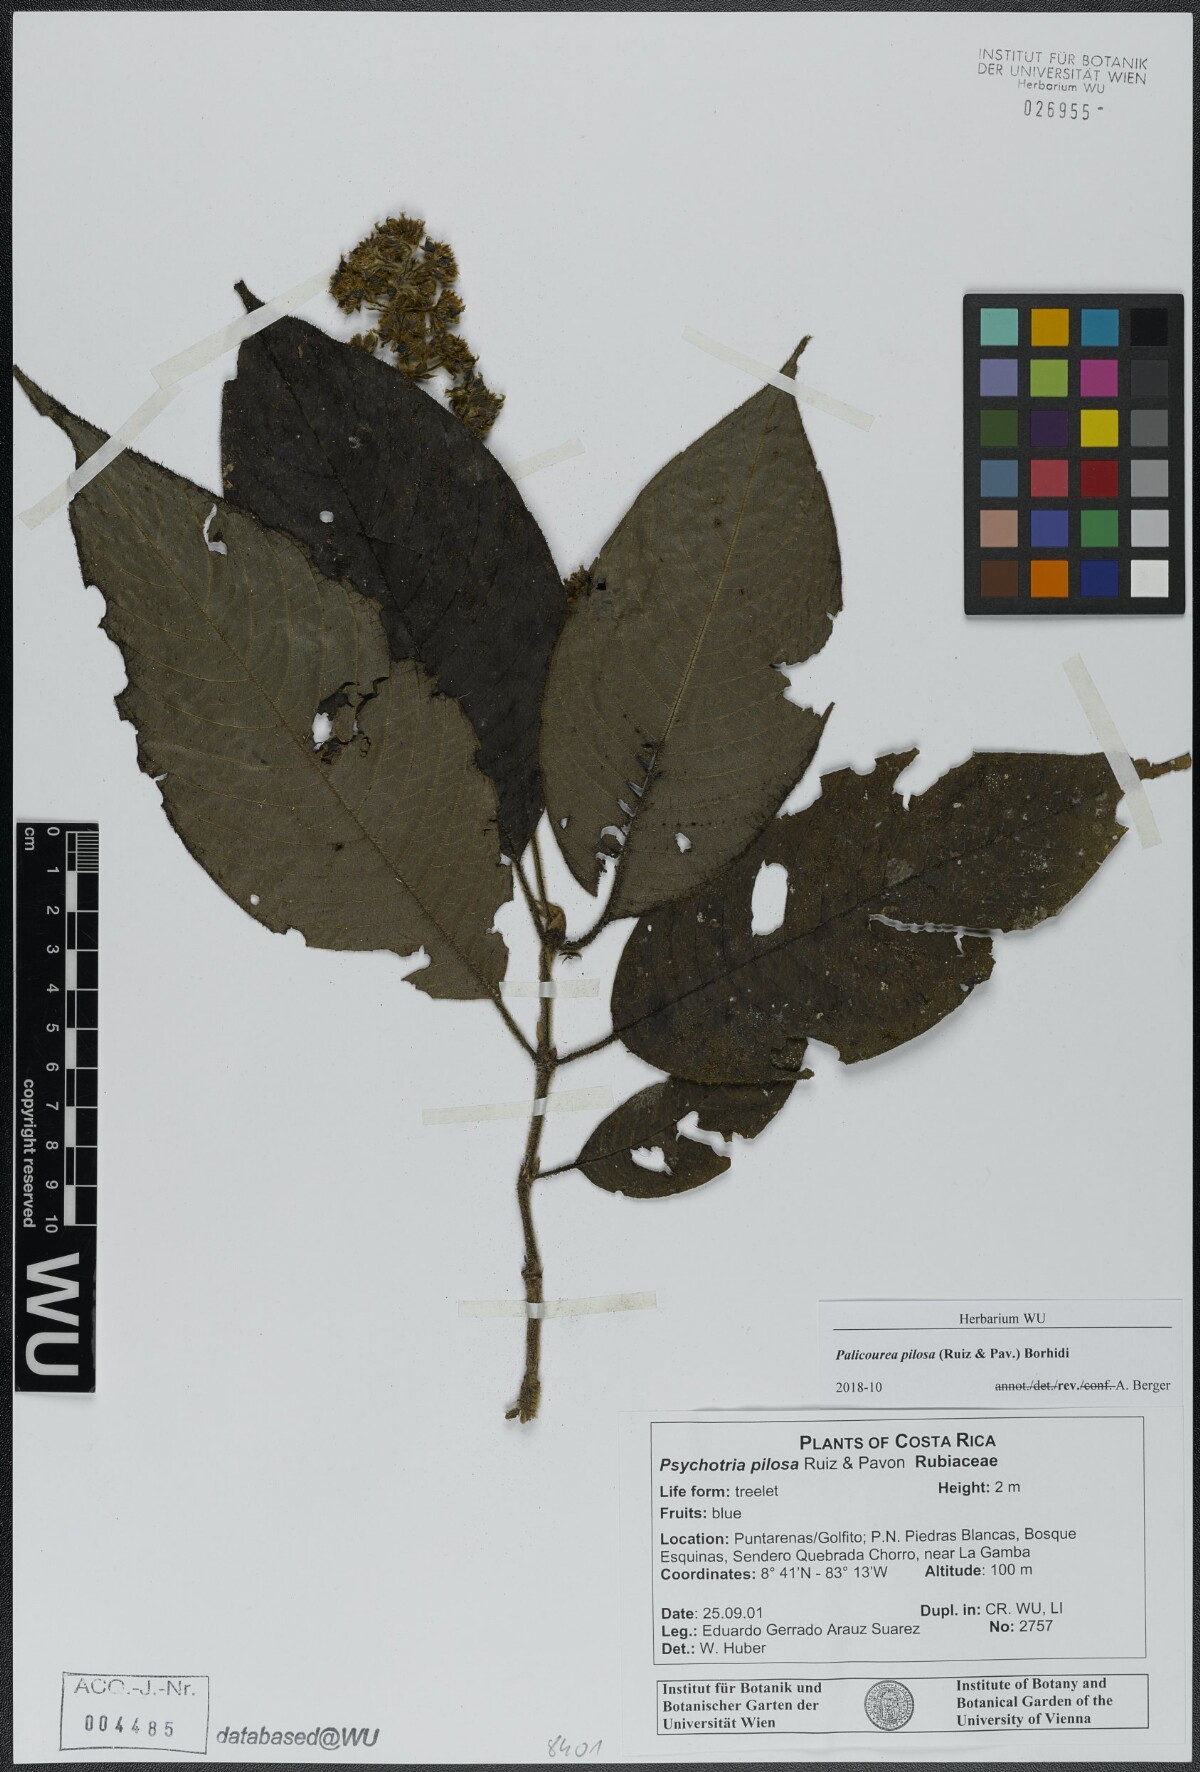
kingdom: Plantae
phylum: Tracheophyta
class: Magnoliopsida
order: Gentianales
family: Rubiaceae
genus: Palicourea
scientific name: Palicourea pilosa
